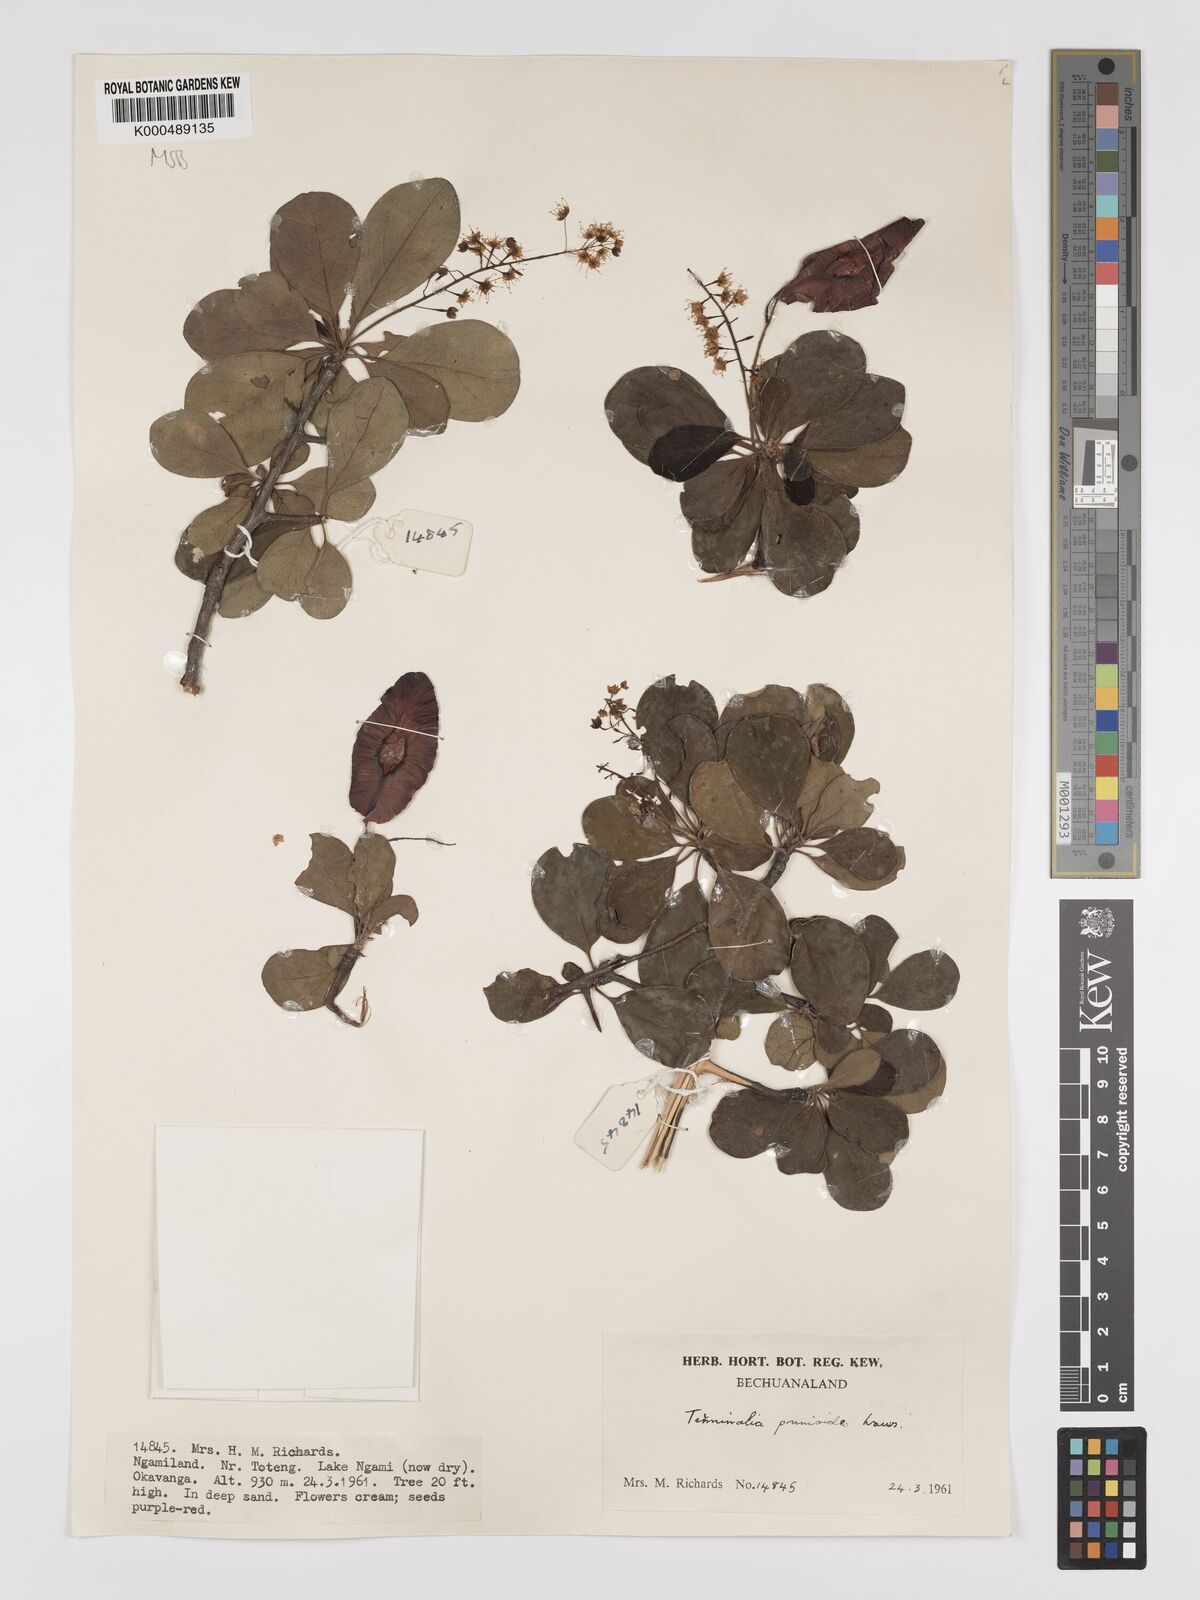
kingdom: Plantae
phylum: Tracheophyta
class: Magnoliopsida
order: Myrtales
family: Combretaceae
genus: Terminalia
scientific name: Terminalia prunioides
